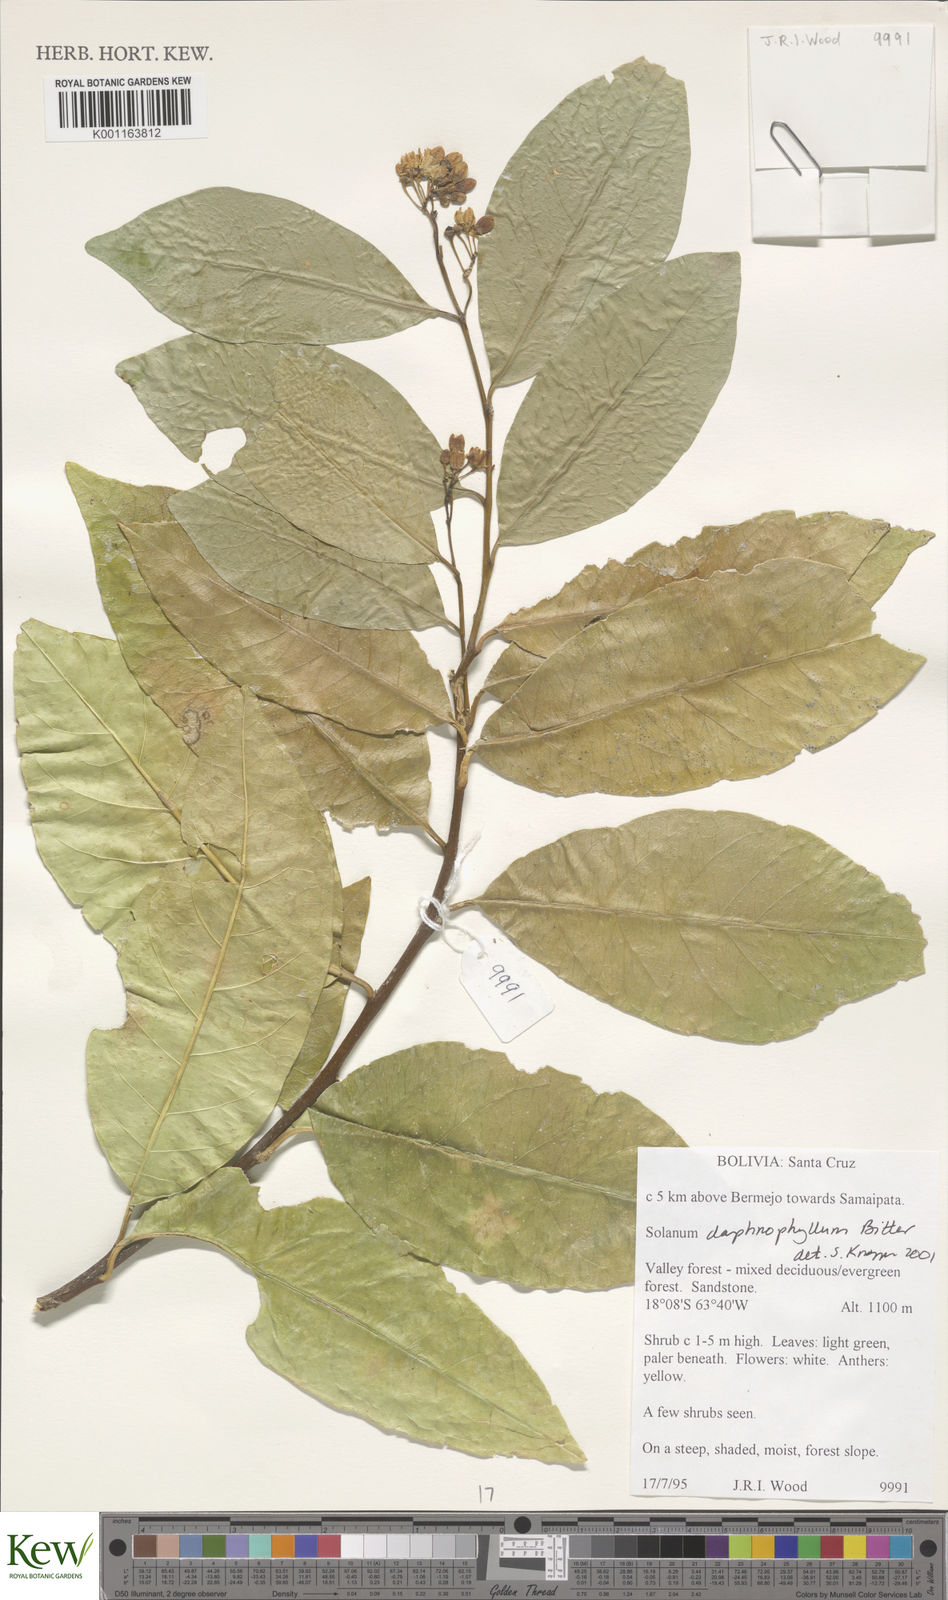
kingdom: Plantae
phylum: Tracheophyta
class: Magnoliopsida
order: Solanales
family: Solanaceae
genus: Solanum
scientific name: Solanum daphnophyllum
